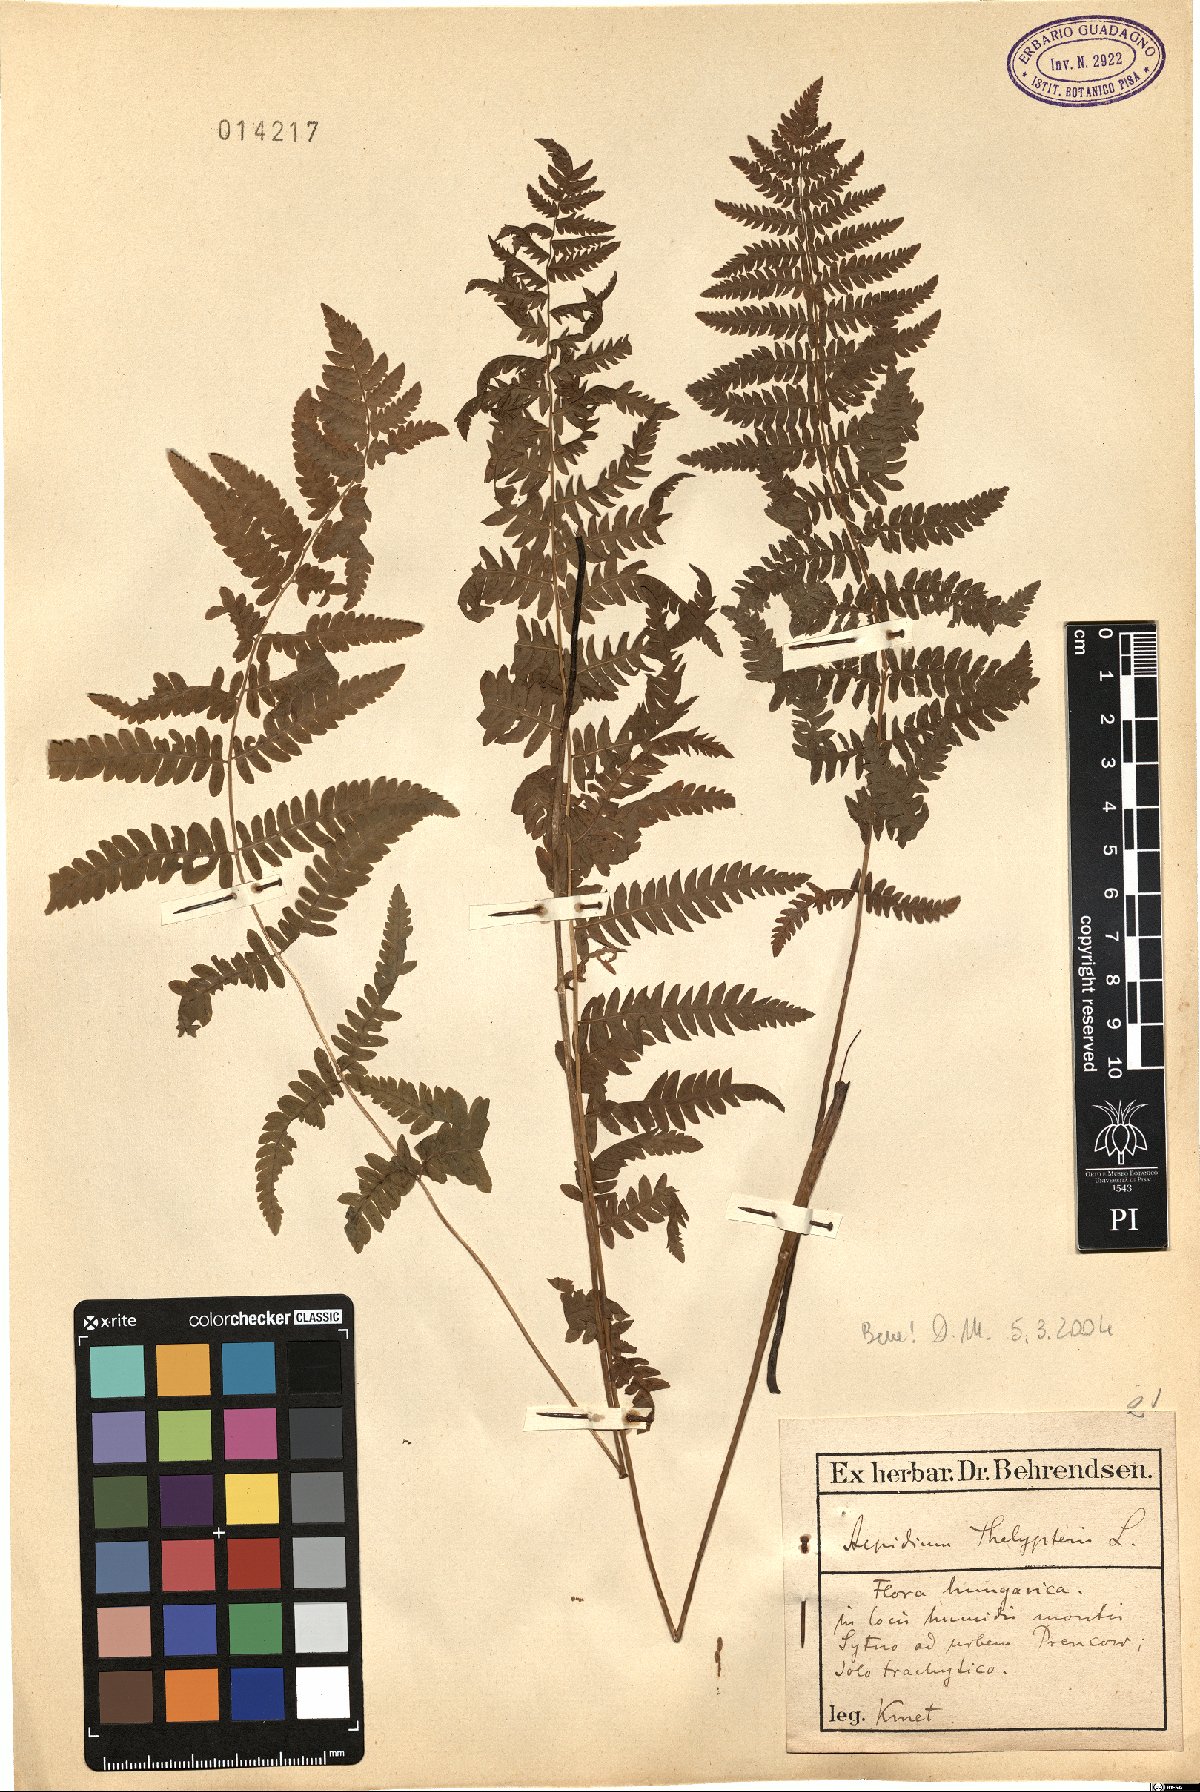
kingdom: Plantae
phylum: Tracheophyta
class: Polypodiopsida
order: Polypodiales
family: Thelypteridaceae
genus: Thelypteris
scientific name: Thelypteris palustris
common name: Marsh fern
